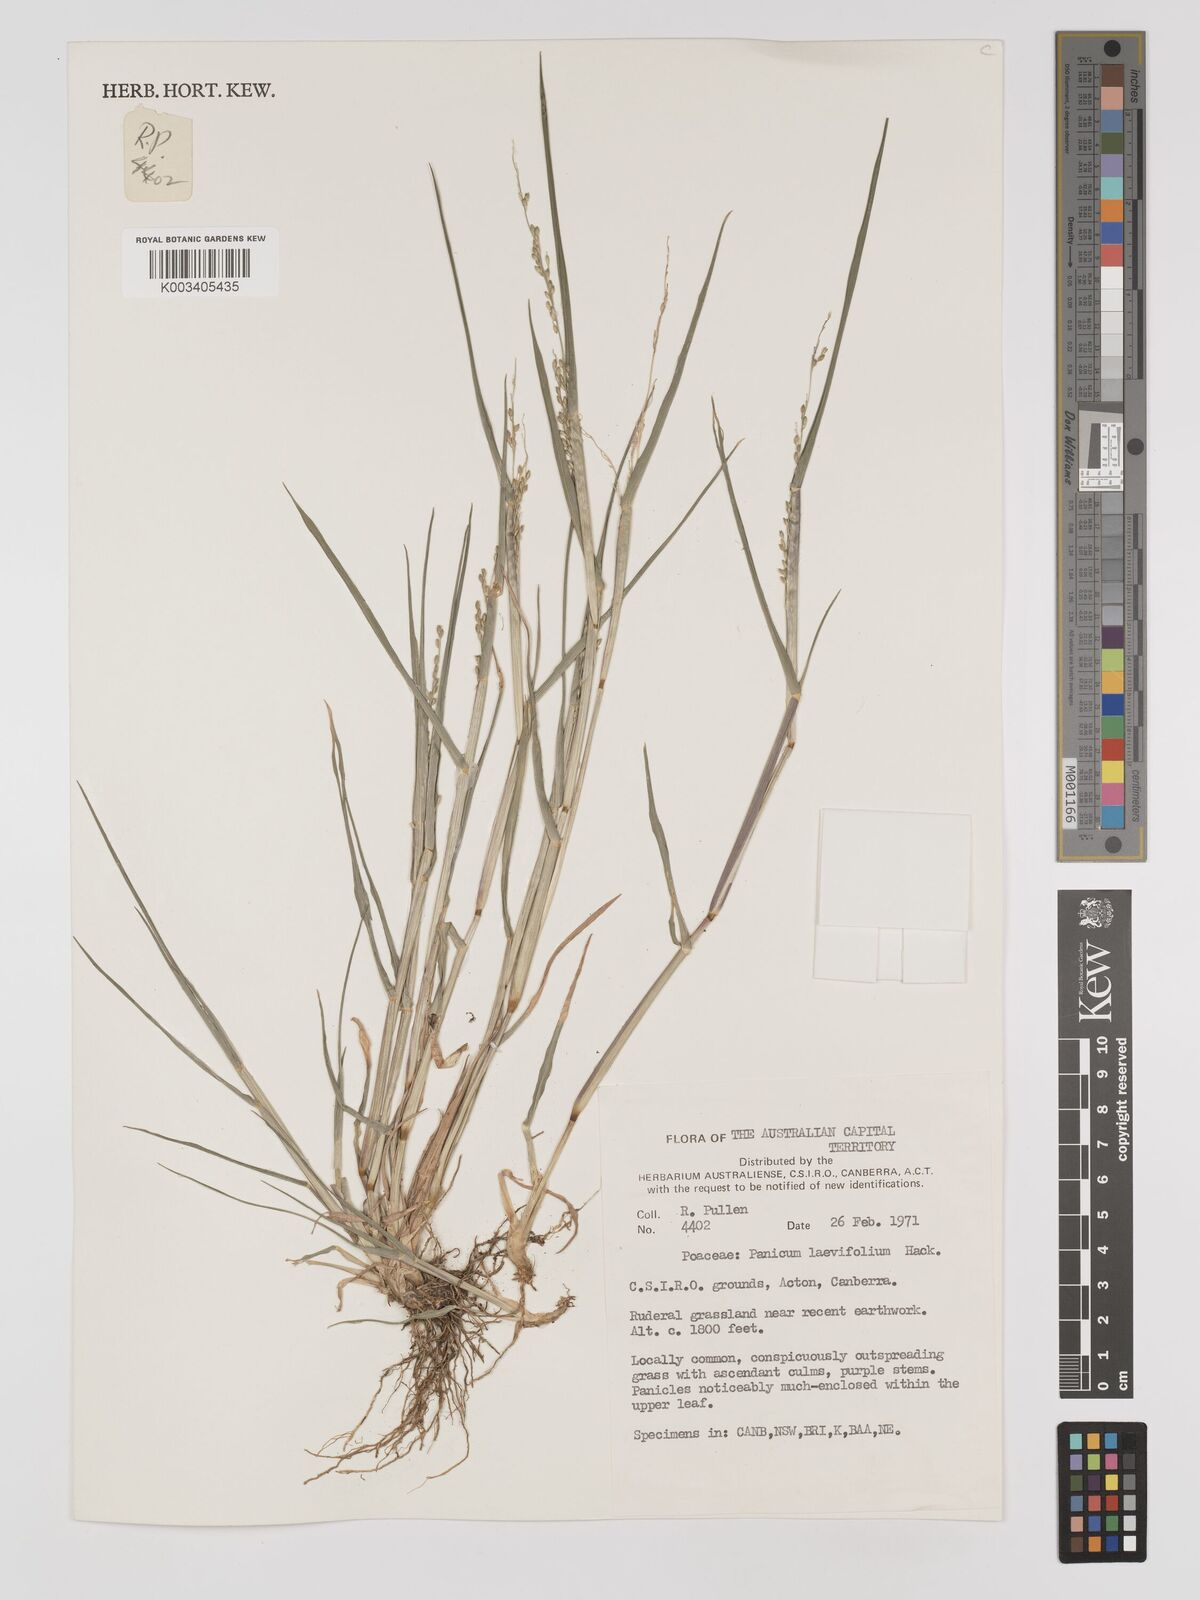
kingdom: Plantae
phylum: Tracheophyta
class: Liliopsida
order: Poales
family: Poaceae
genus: Panicum
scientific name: Panicum schinzii
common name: Sweet grass
